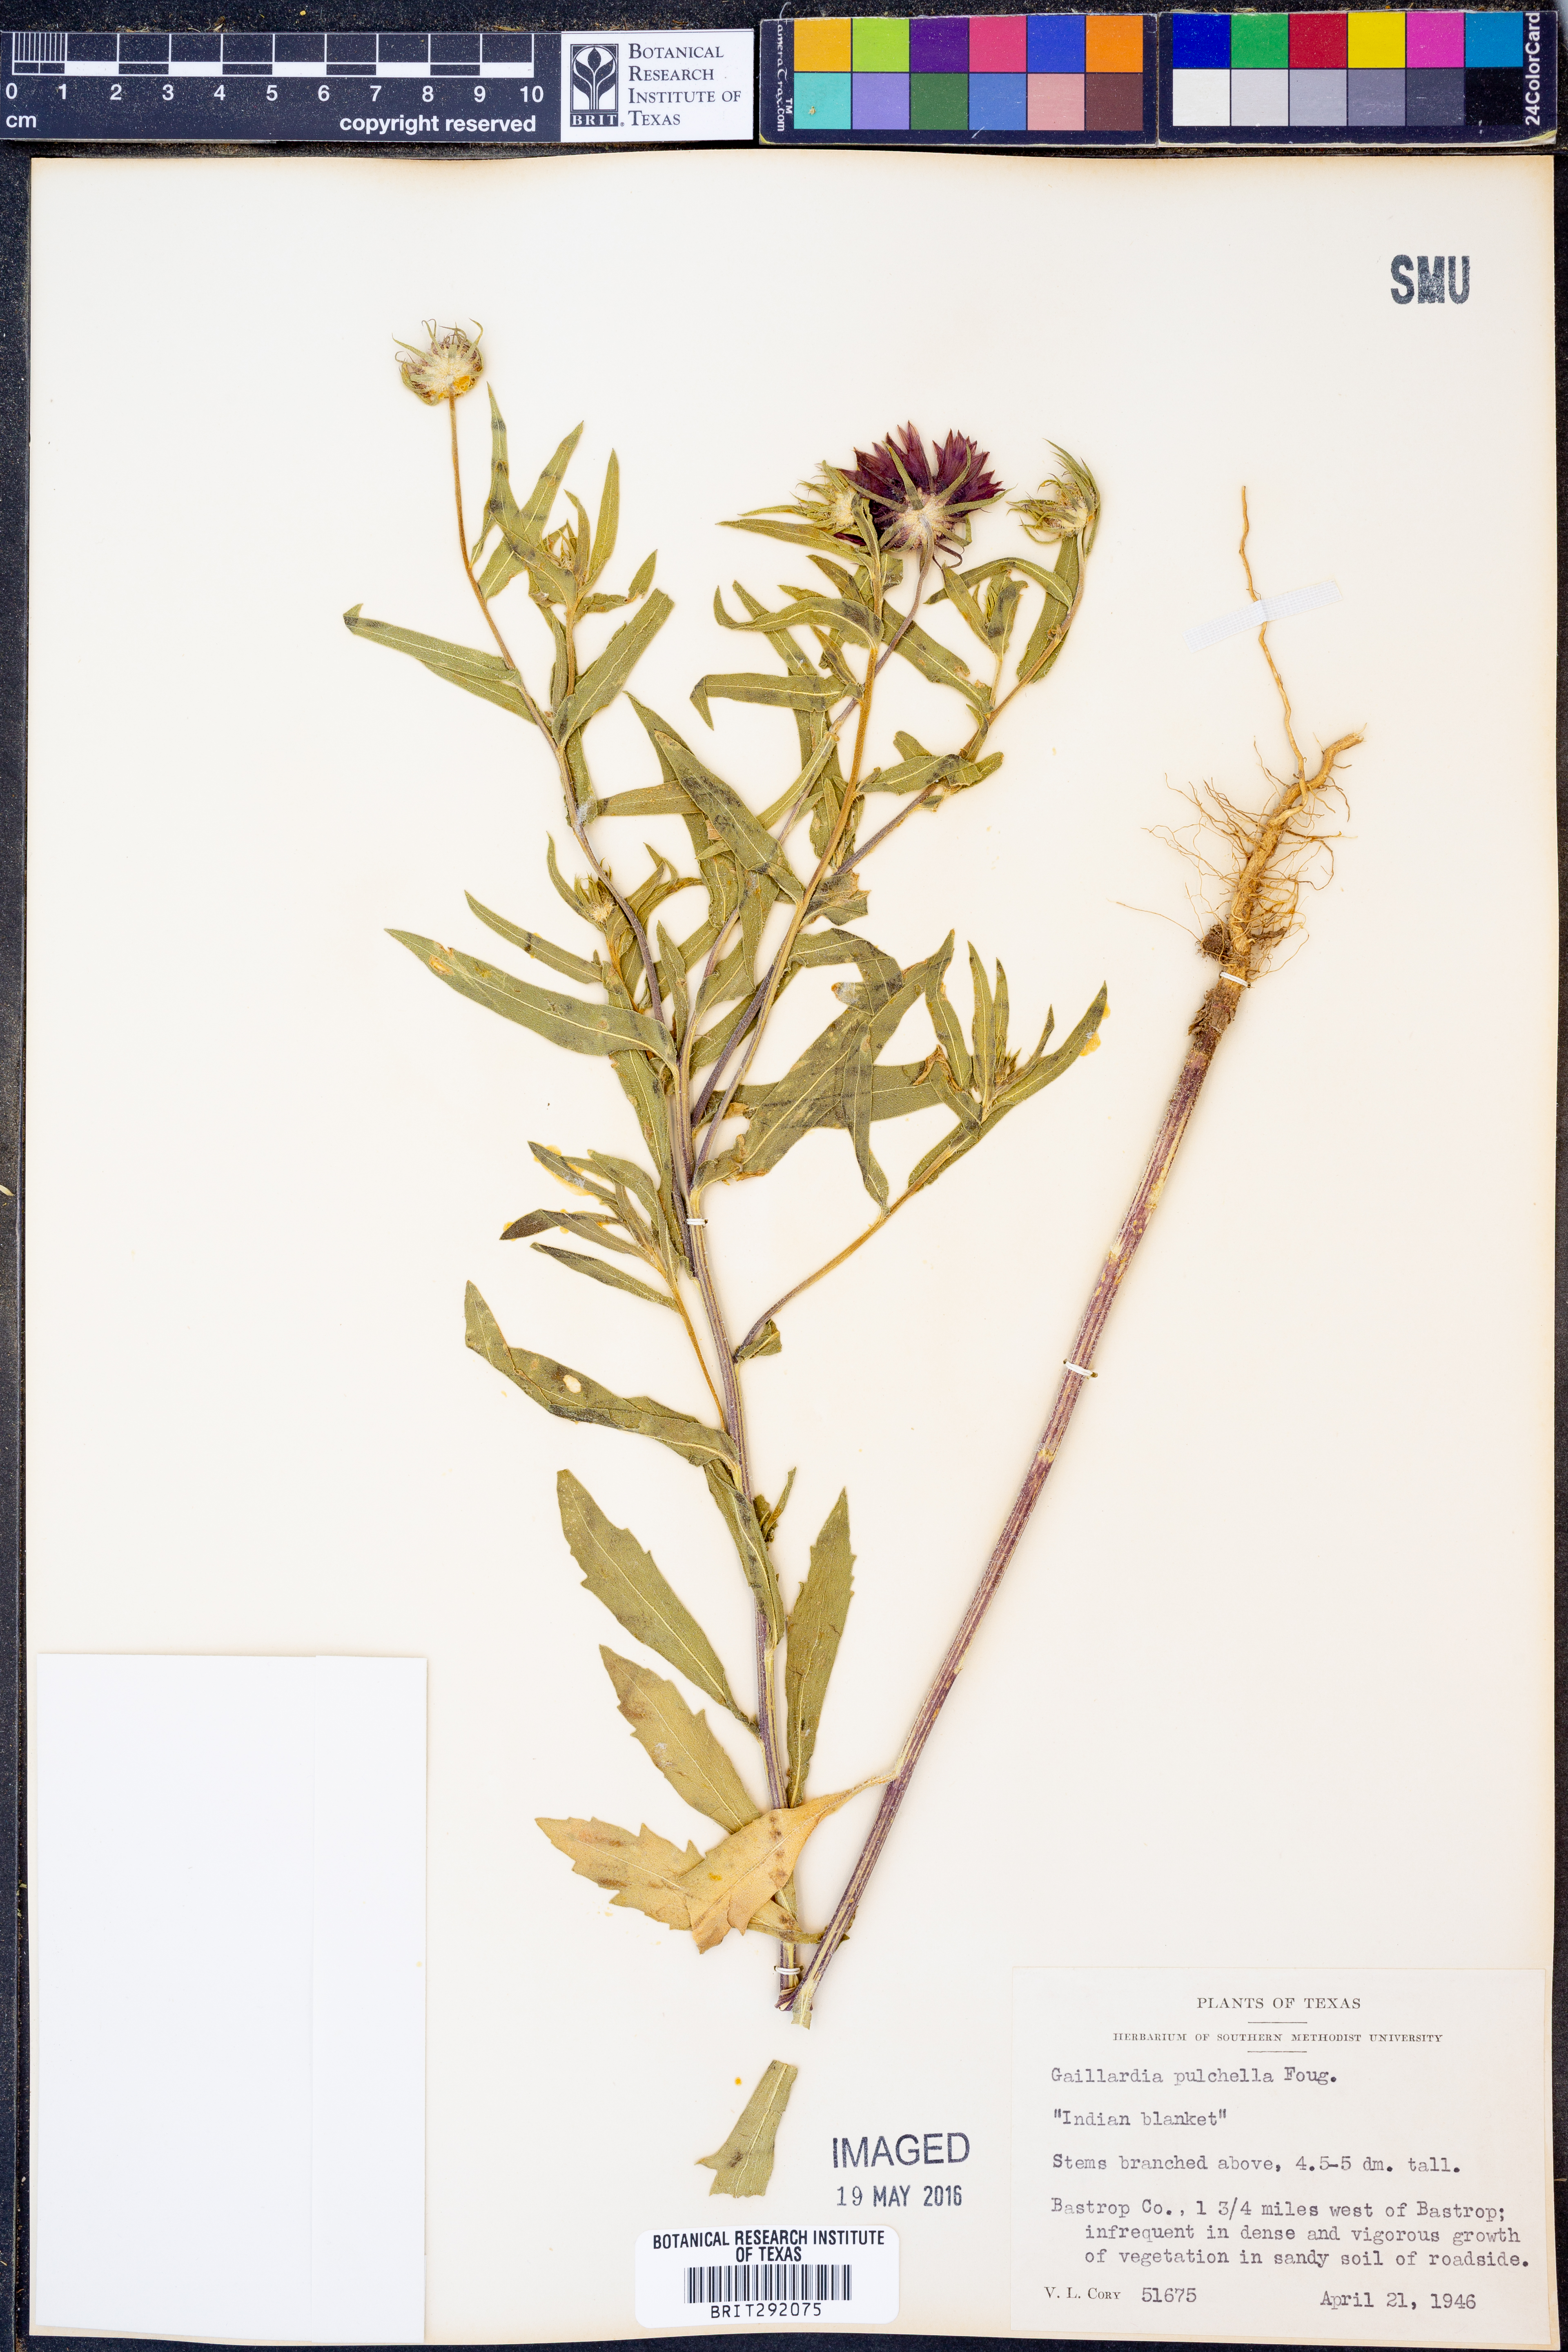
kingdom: Plantae
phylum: Tracheophyta
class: Magnoliopsida
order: Asterales
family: Asteraceae
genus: Gaillardia
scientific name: Gaillardia pulchella
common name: Firewheel
